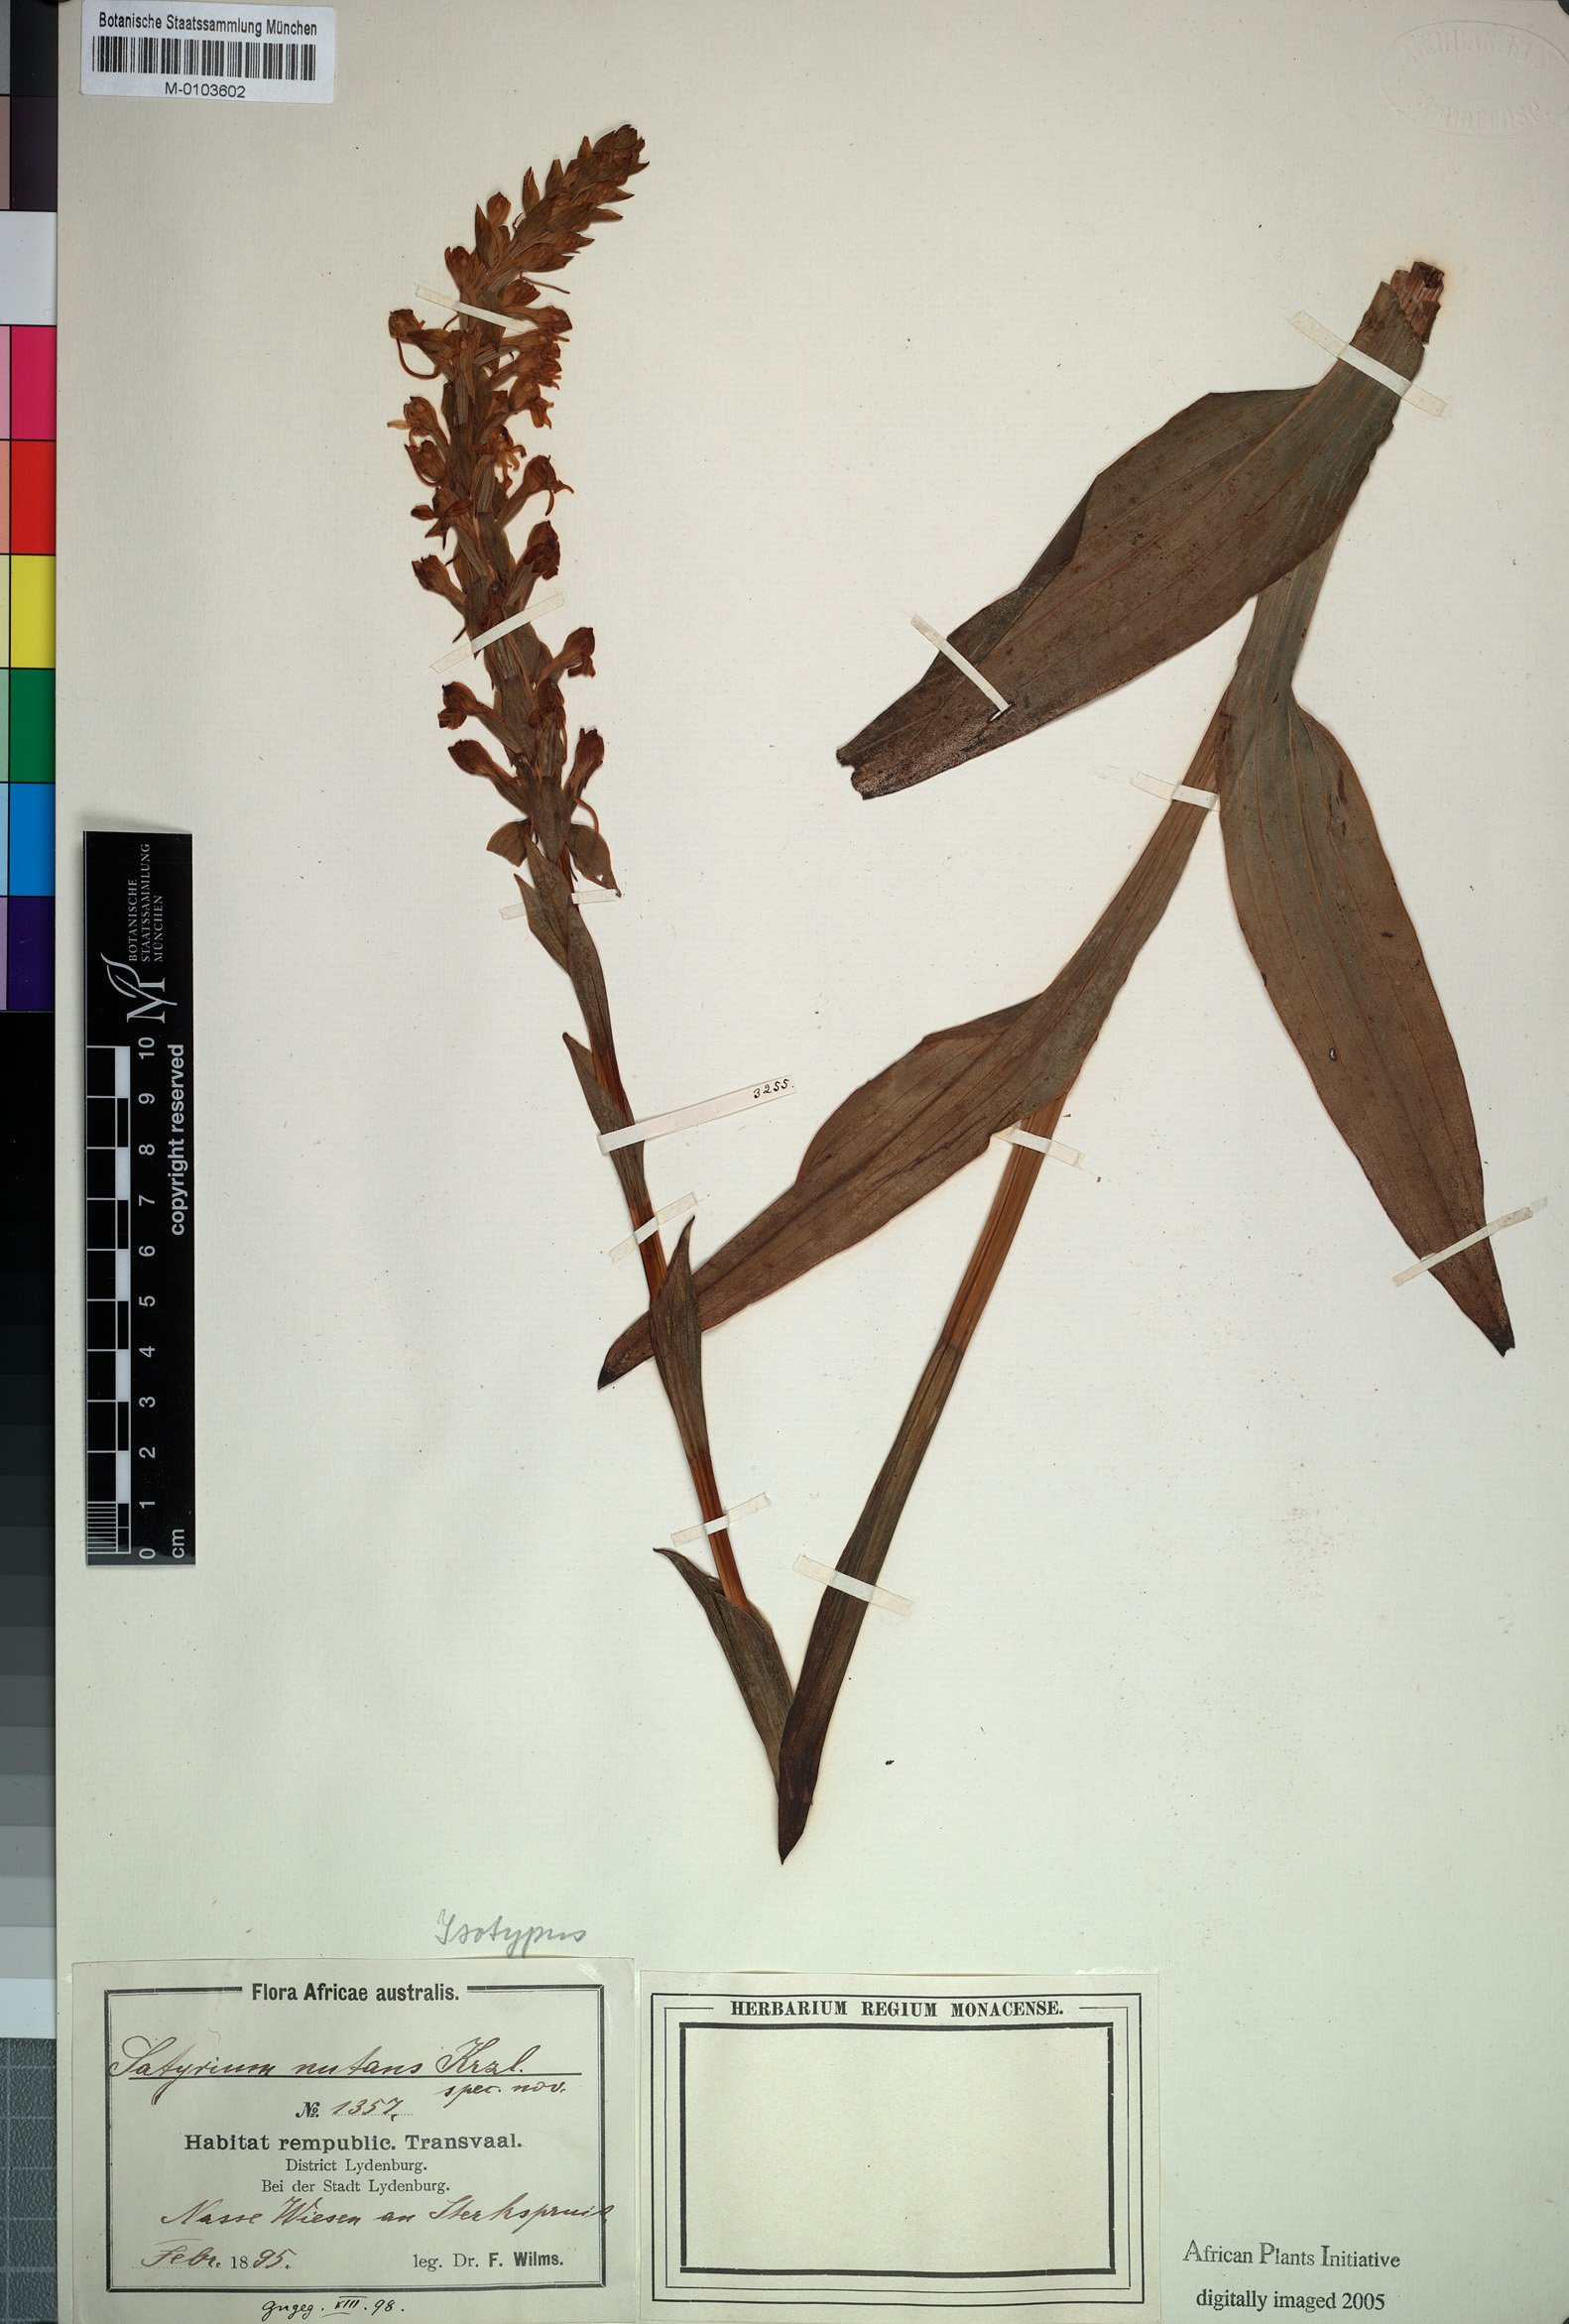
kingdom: Plantae
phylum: Tracheophyta
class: Liliopsida
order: Asparagales
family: Orchidaceae
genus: Satyrium
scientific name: Satyrium hallackii
